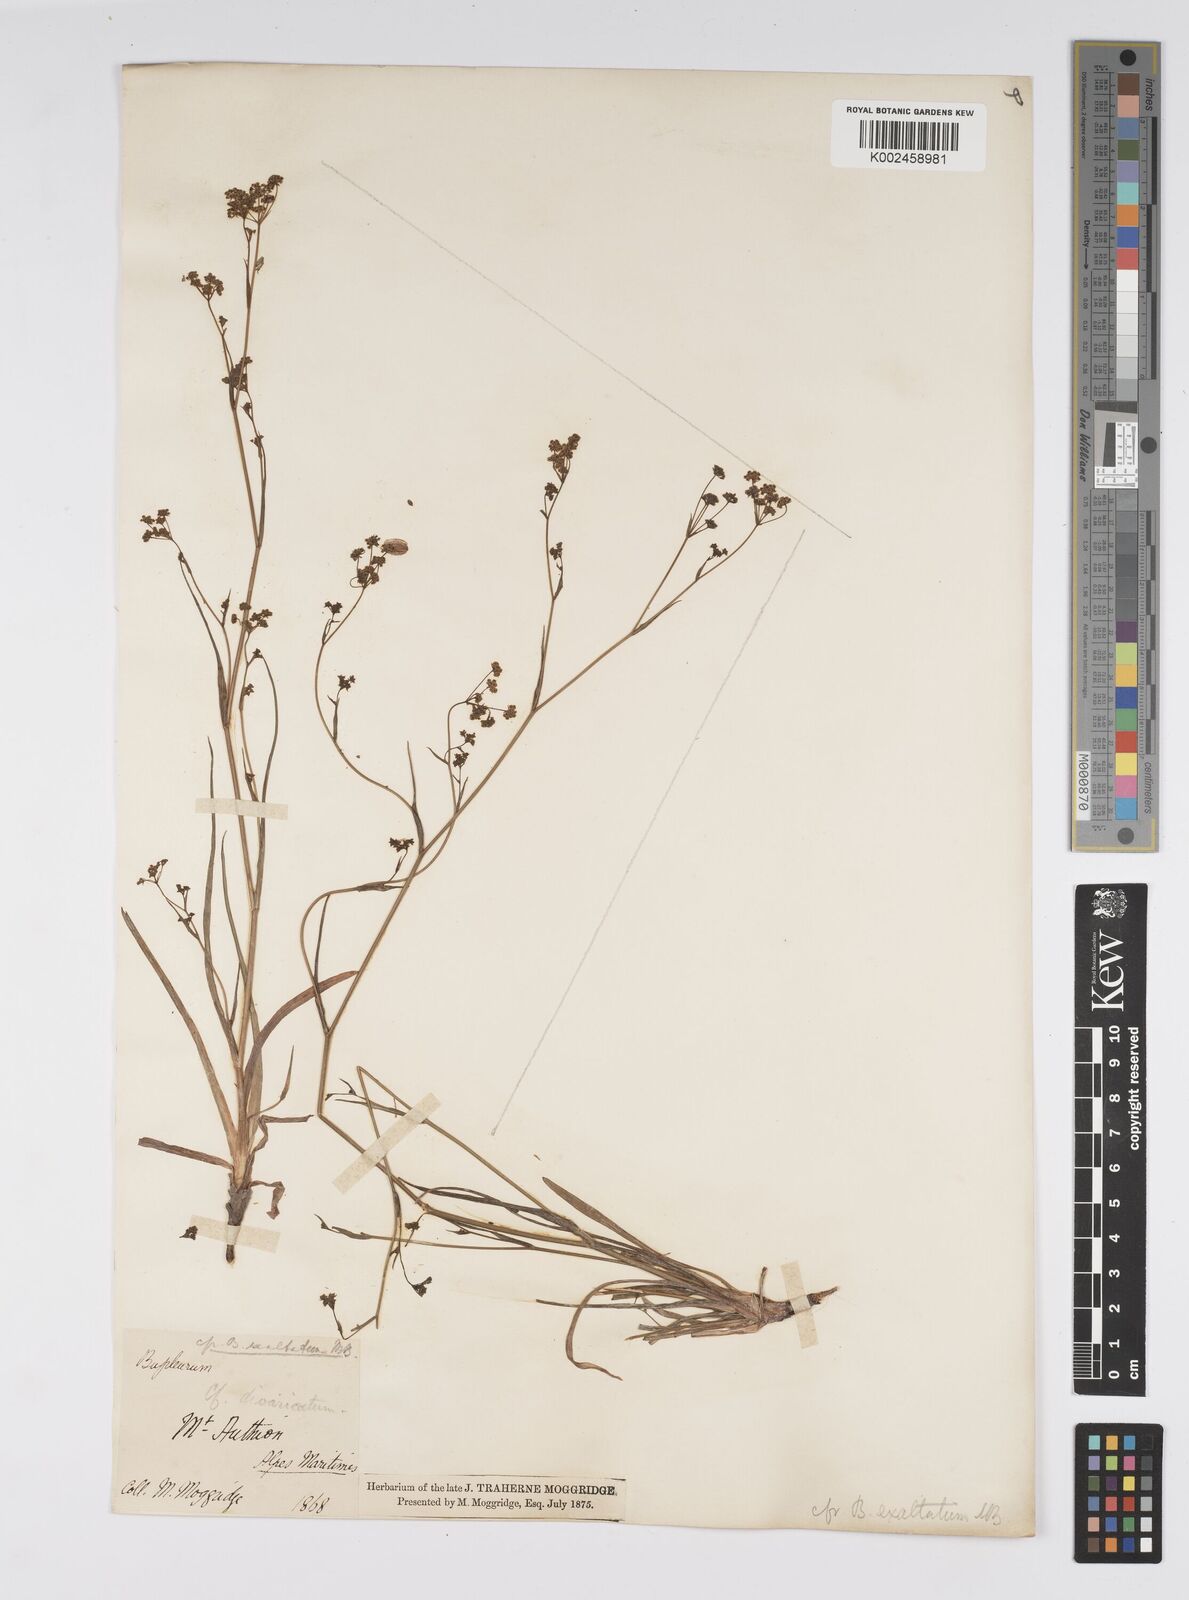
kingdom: Plantae
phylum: Tracheophyta
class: Magnoliopsida
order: Apiales
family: Apiaceae
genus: Bupleurum
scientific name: Bupleurum falcatum
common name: Sickle-leaved hare's-ear
